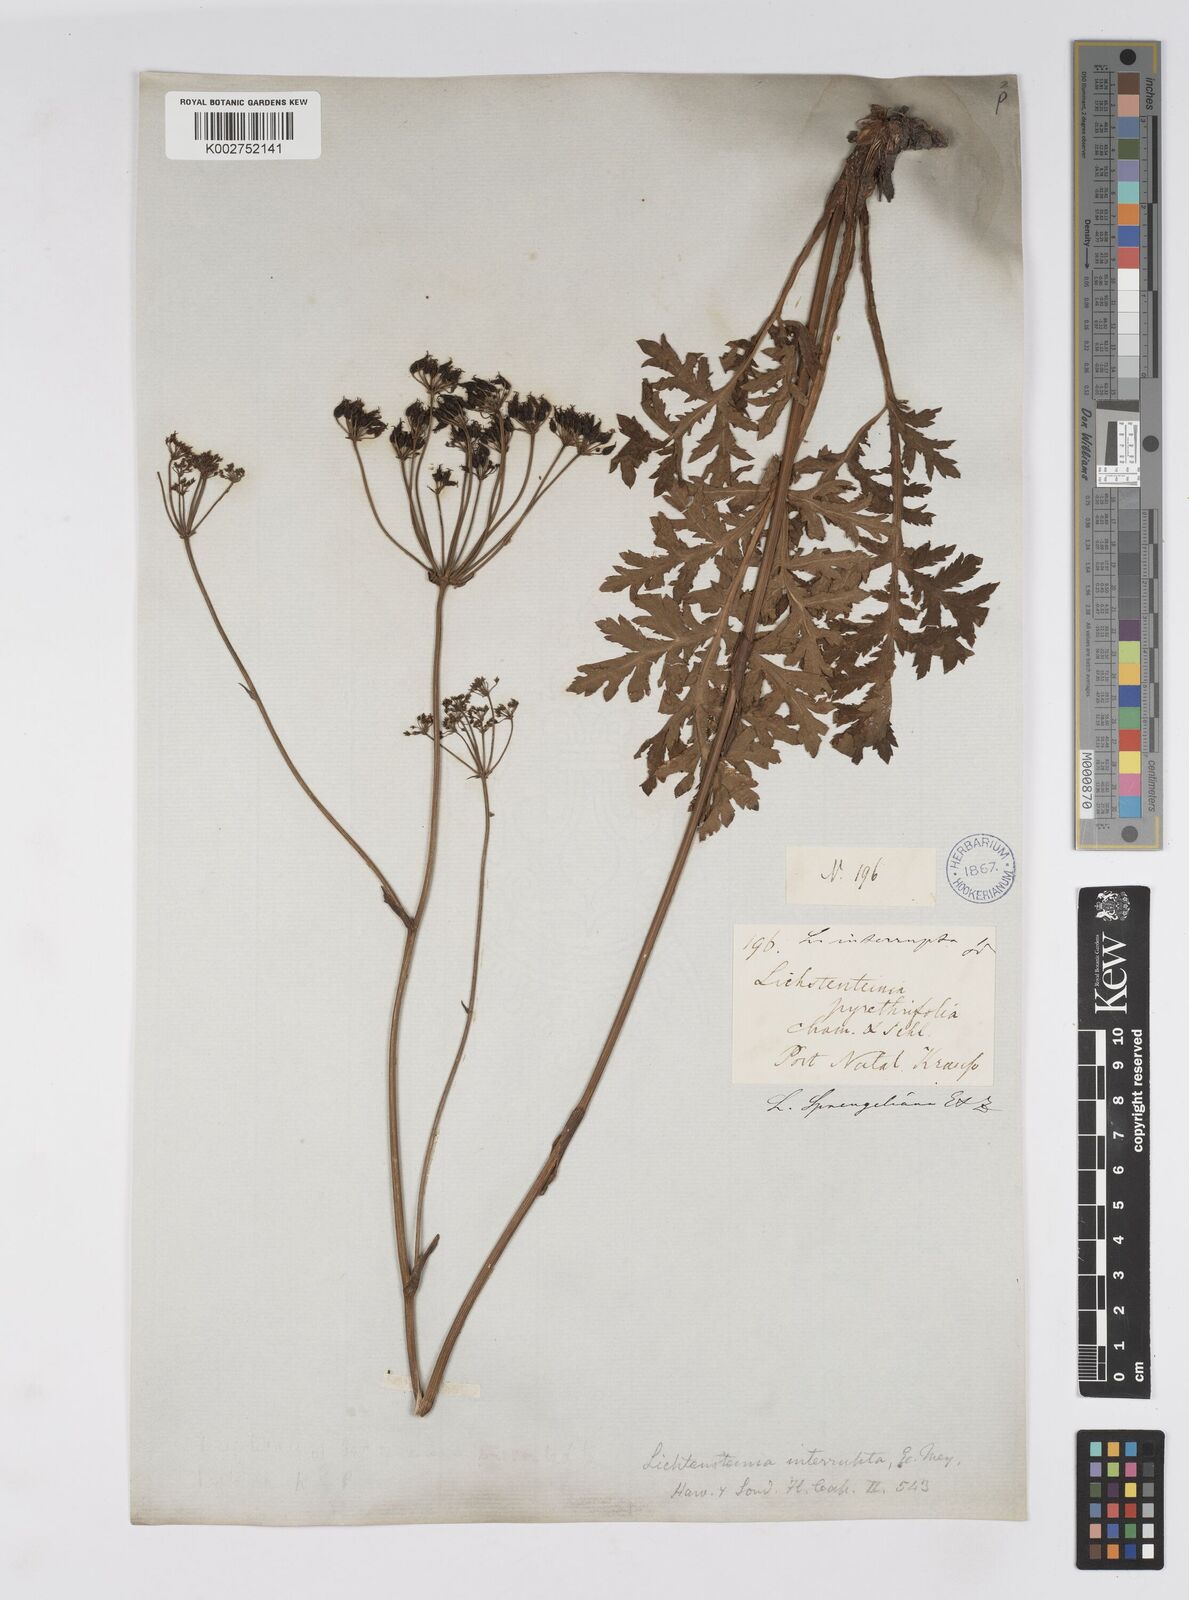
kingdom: Plantae
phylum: Tracheophyta
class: Magnoliopsida
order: Apiales
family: Apiaceae
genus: Lichtensteinia
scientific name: Lichtensteinia interrupta
